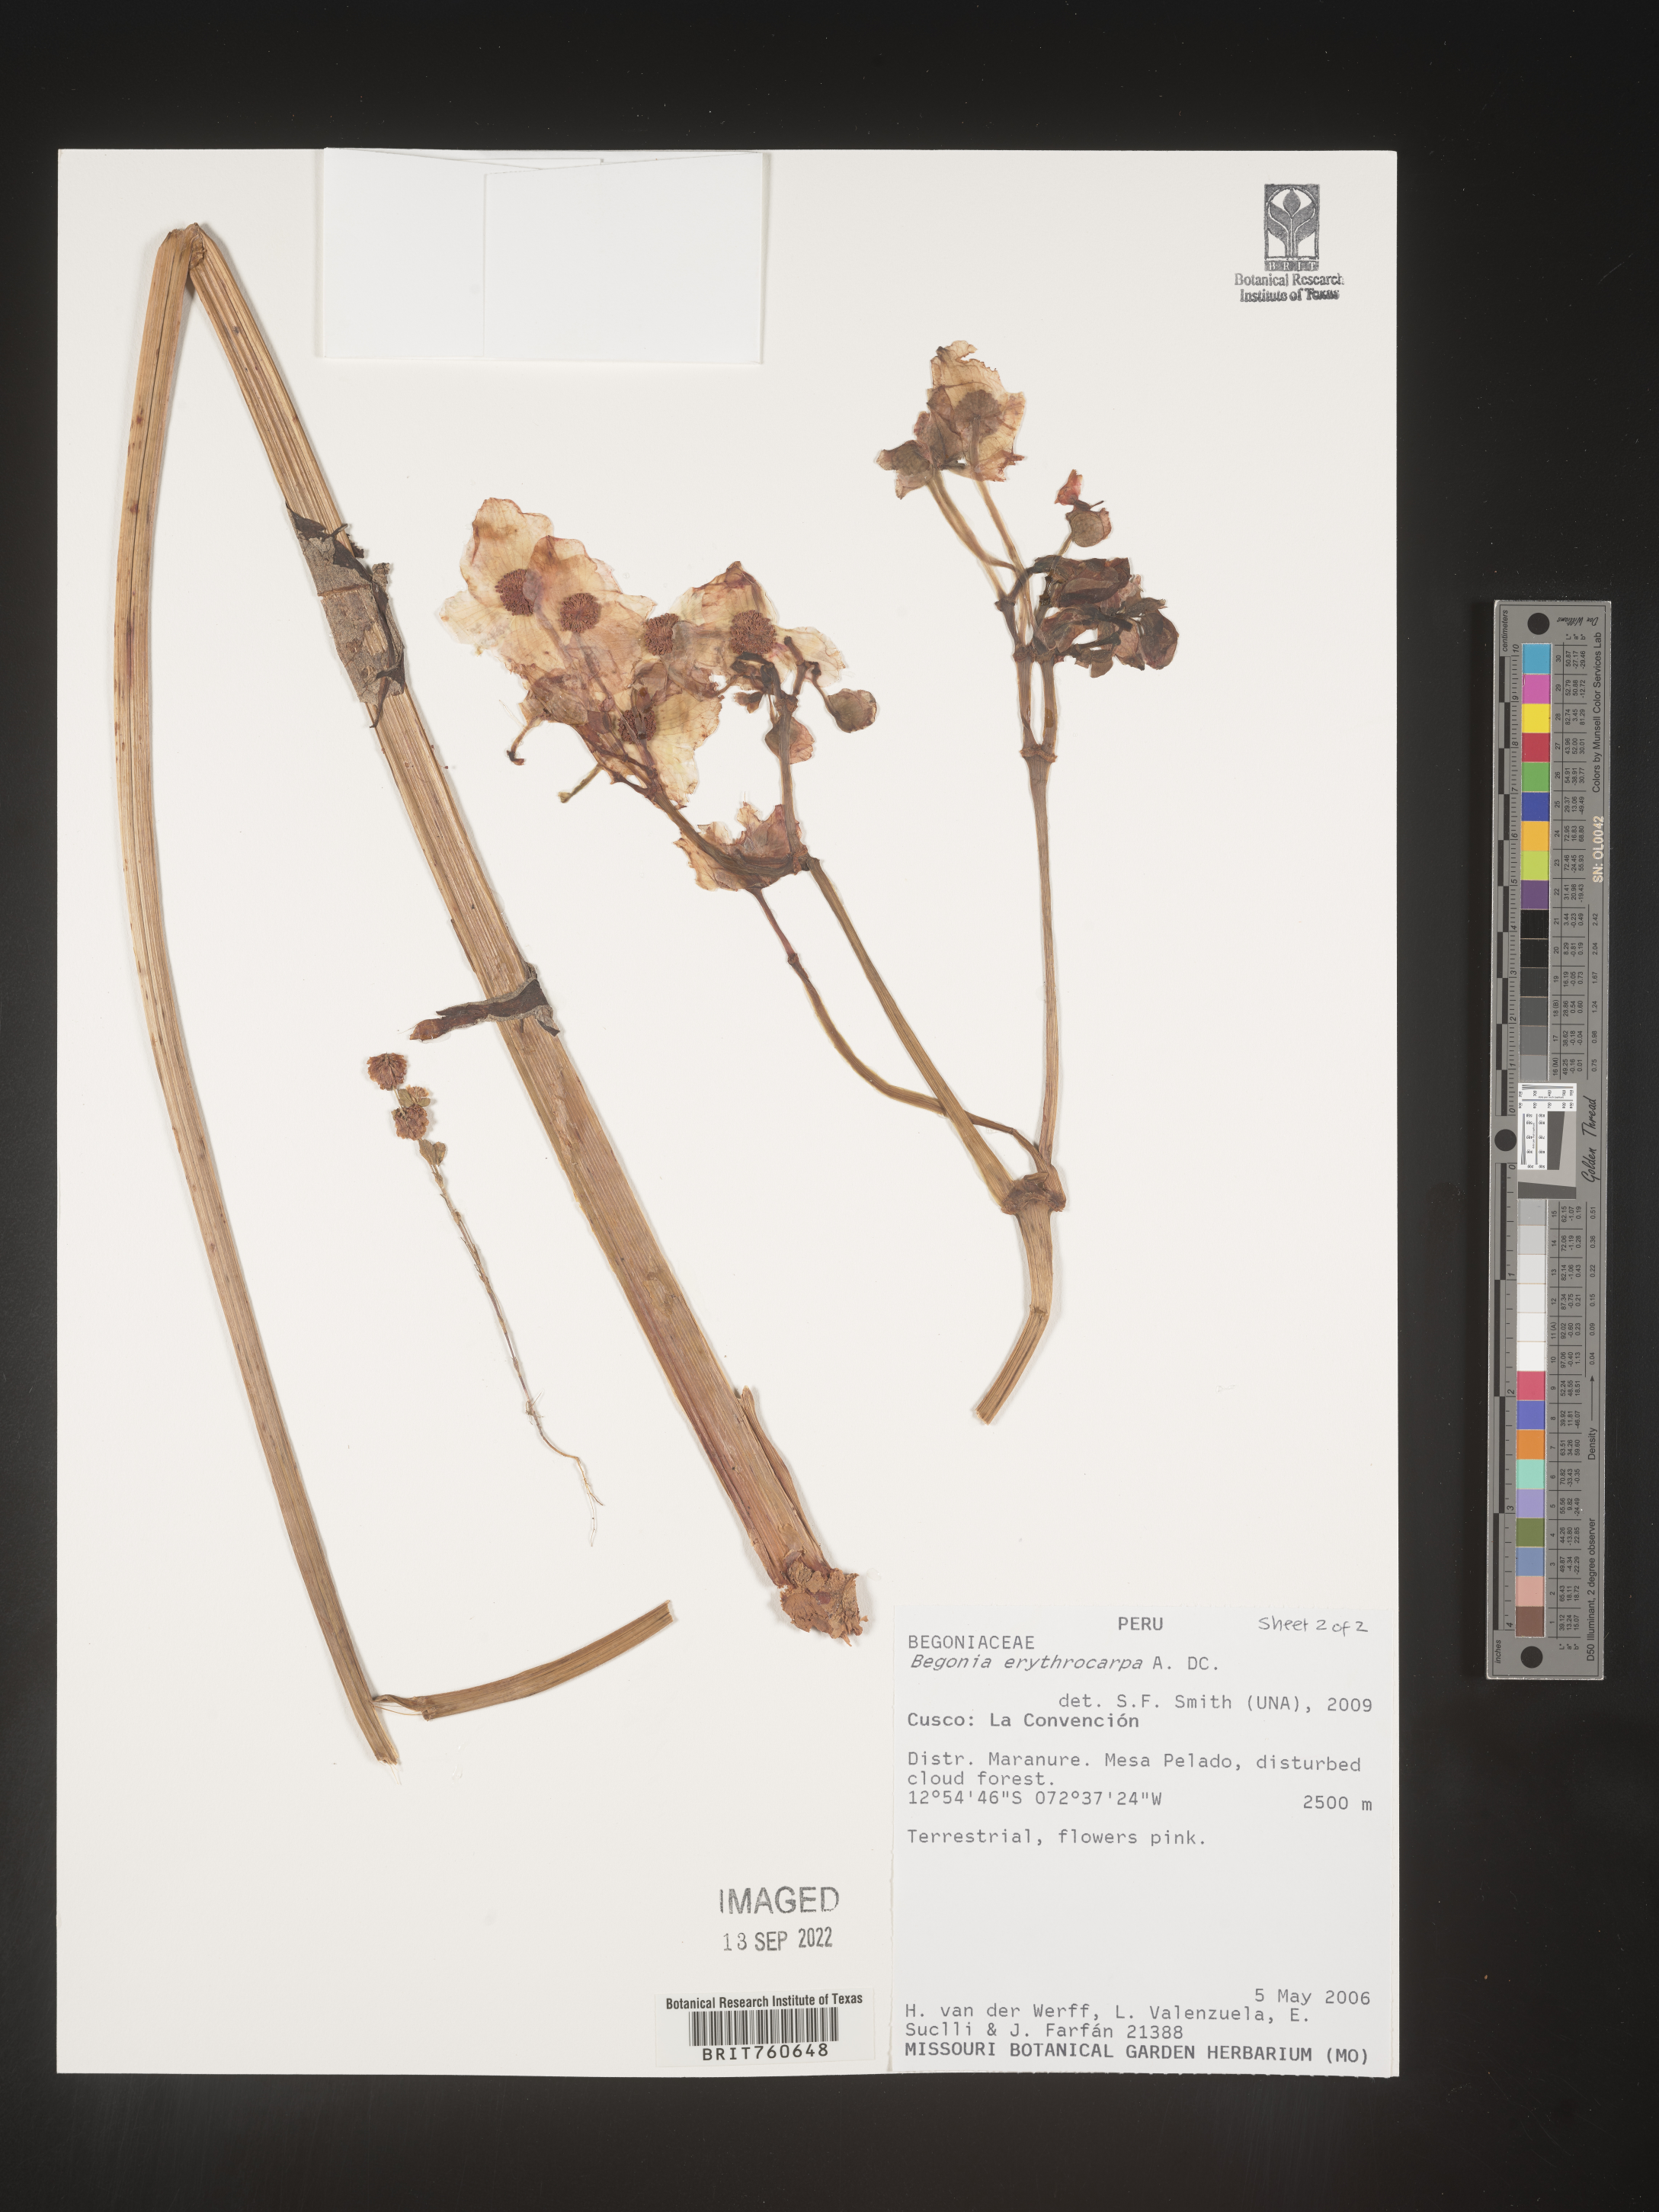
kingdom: Plantae
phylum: Tracheophyta
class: Magnoliopsida
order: Cucurbitales
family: Begoniaceae
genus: Begonia
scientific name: Begonia
